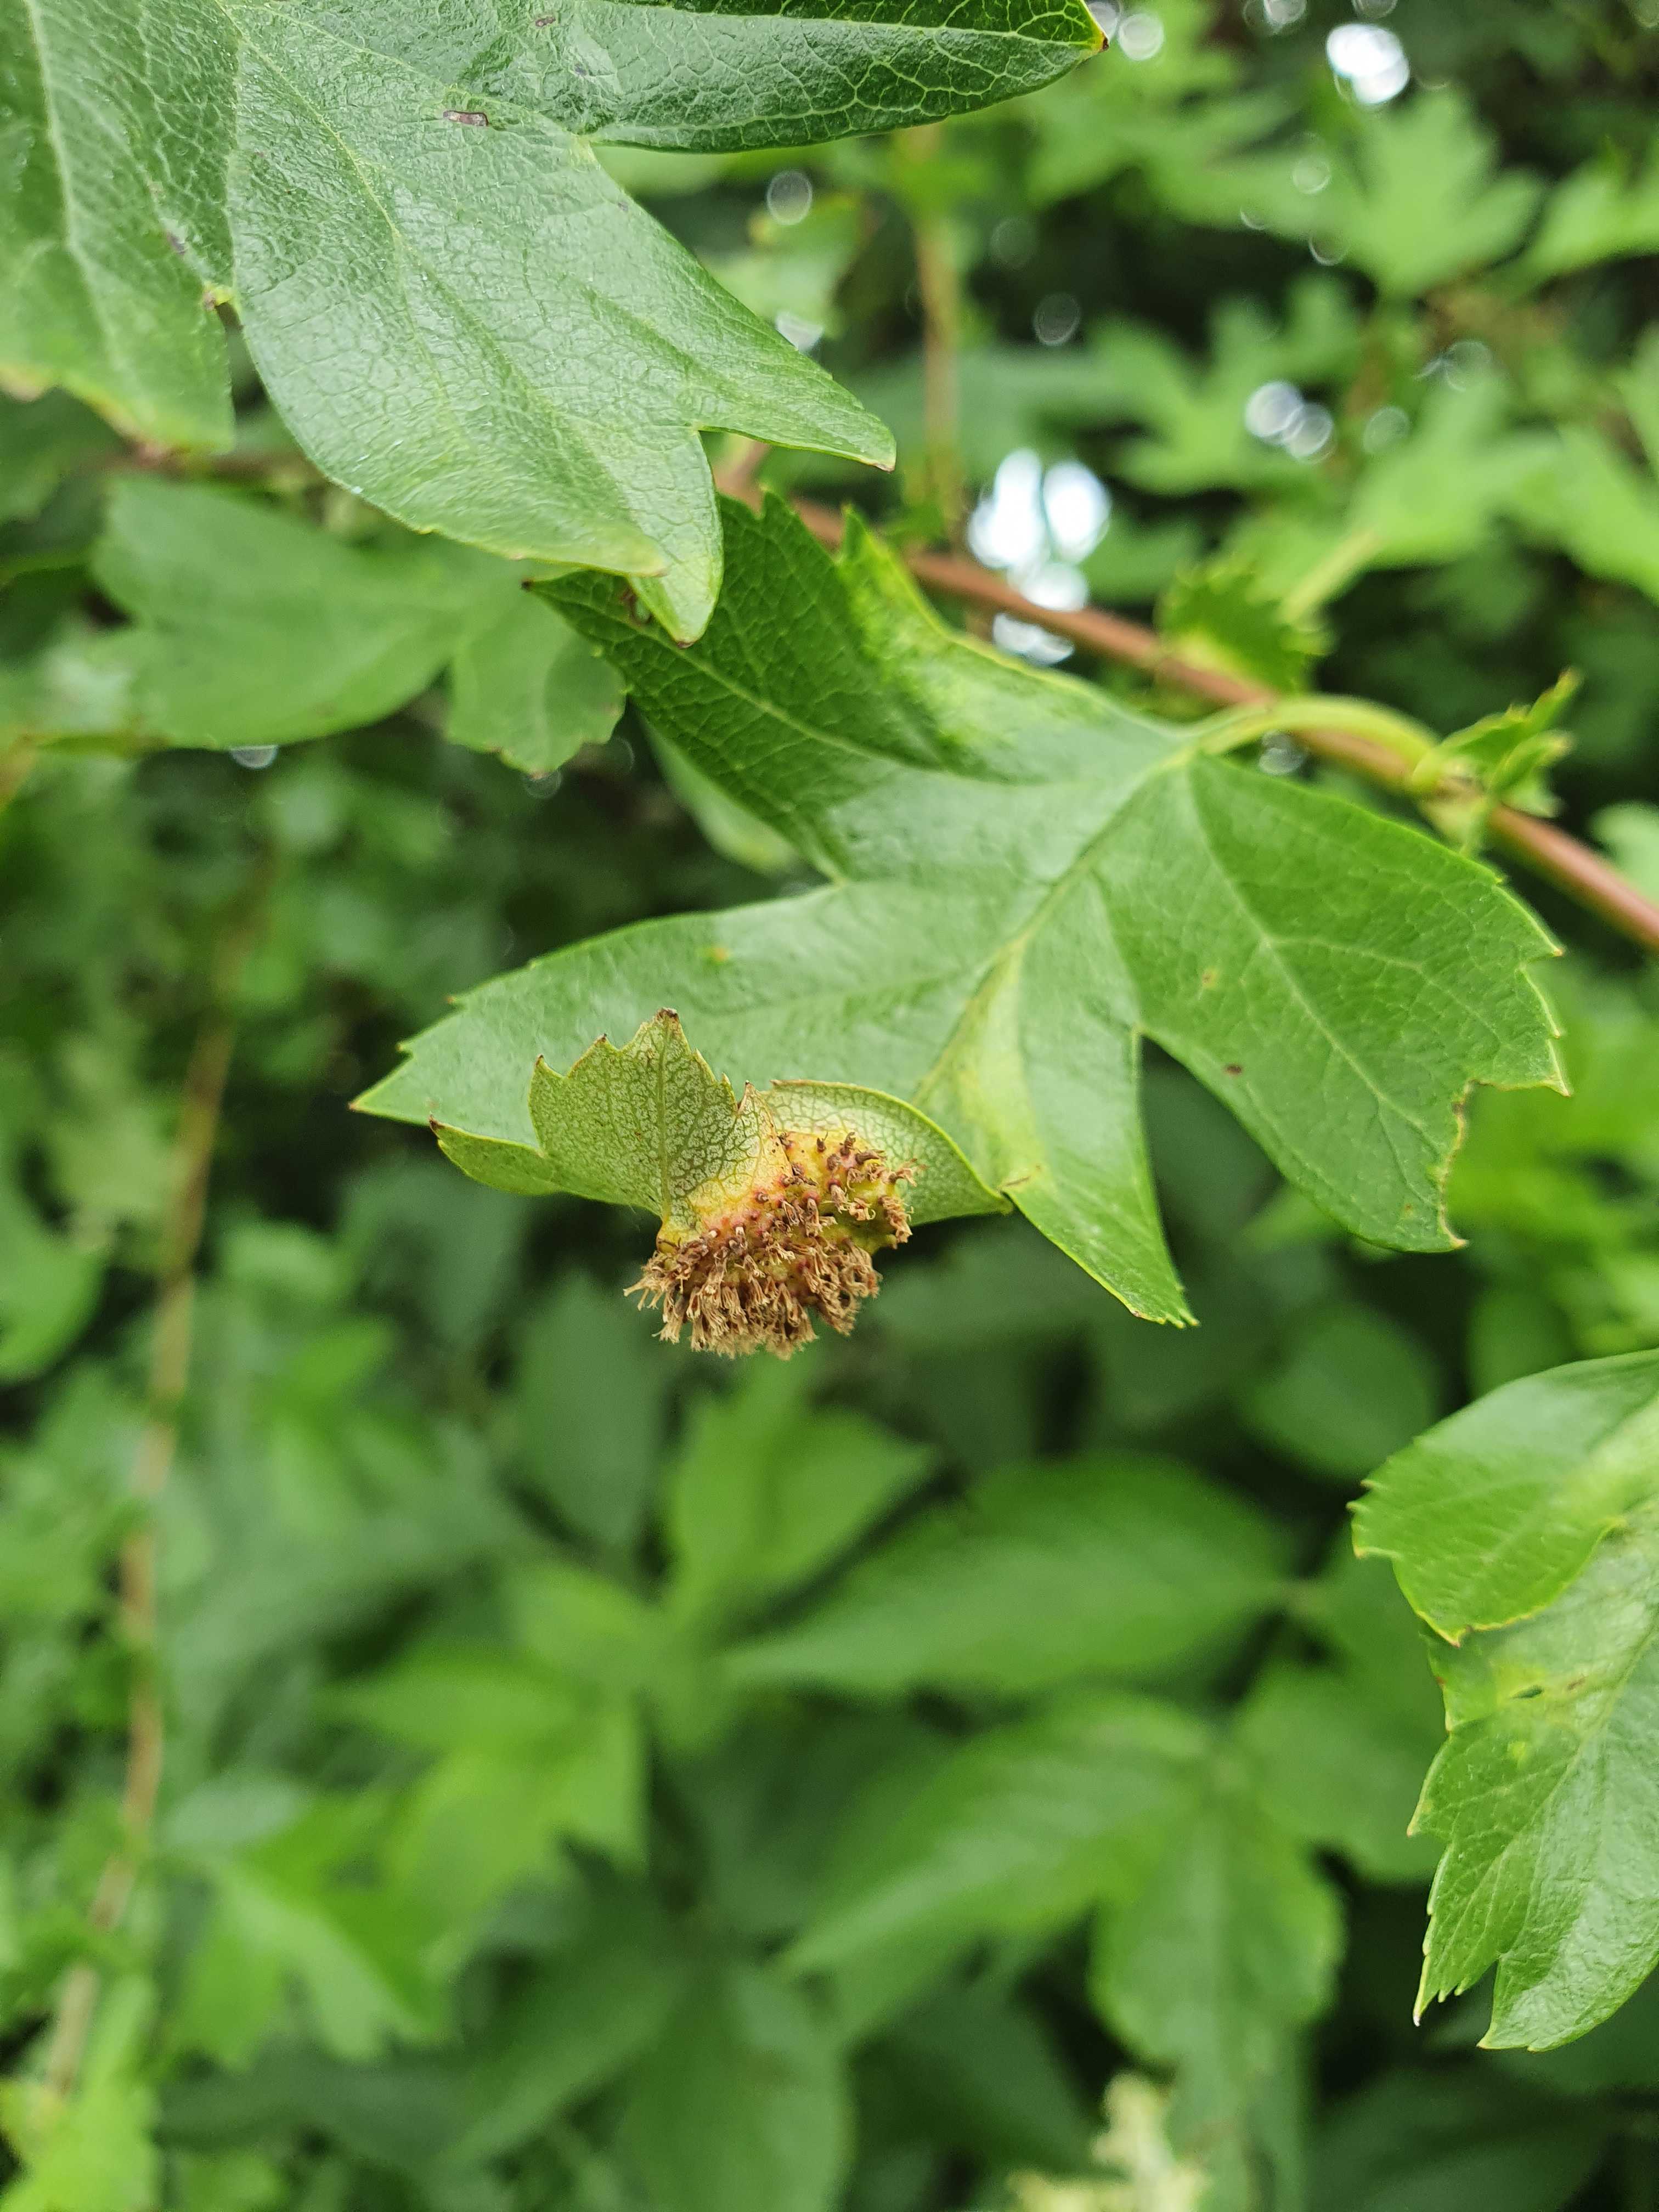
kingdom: Fungi
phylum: Basidiomycota
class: Pucciniomycetes
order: Pucciniales
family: Gymnosporangiaceae
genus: Gymnosporangium
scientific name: Gymnosporangium
